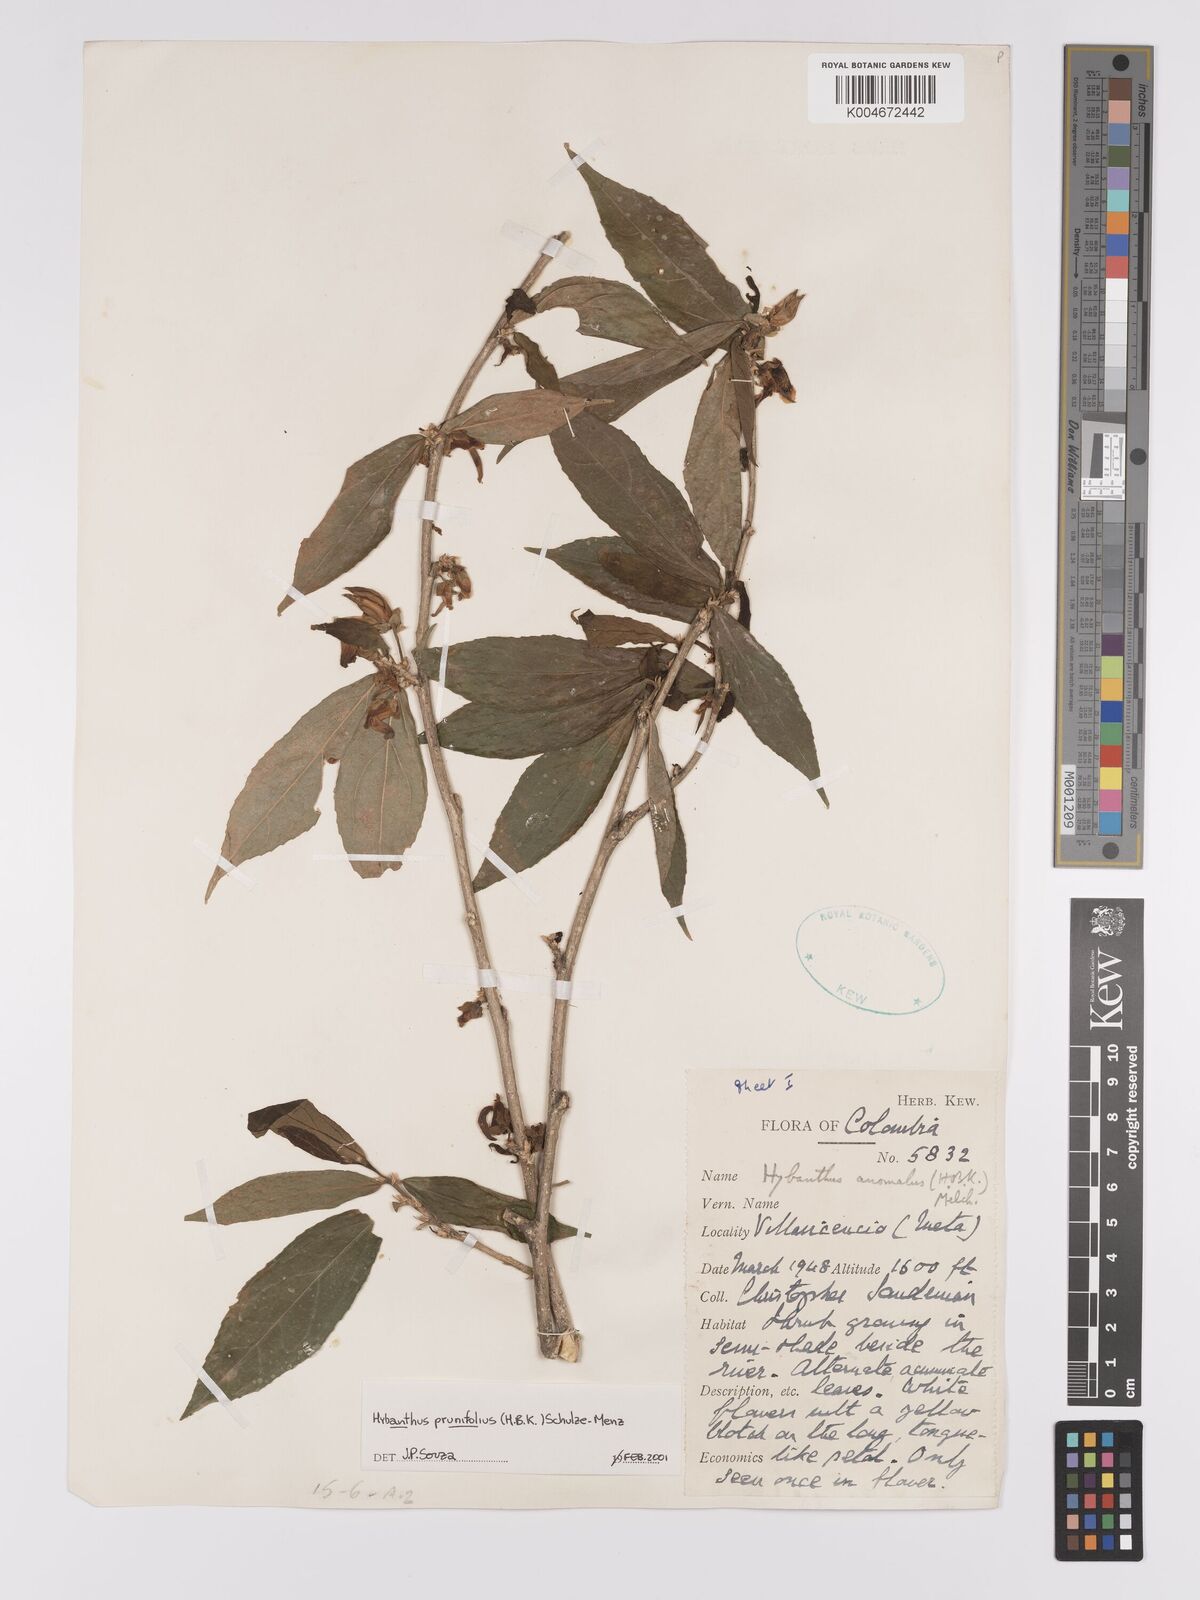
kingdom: Plantae
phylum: Tracheophyta
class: Magnoliopsida
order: Malpighiales
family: Violaceae
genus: Pombalia
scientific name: Pombalia prunifolia
